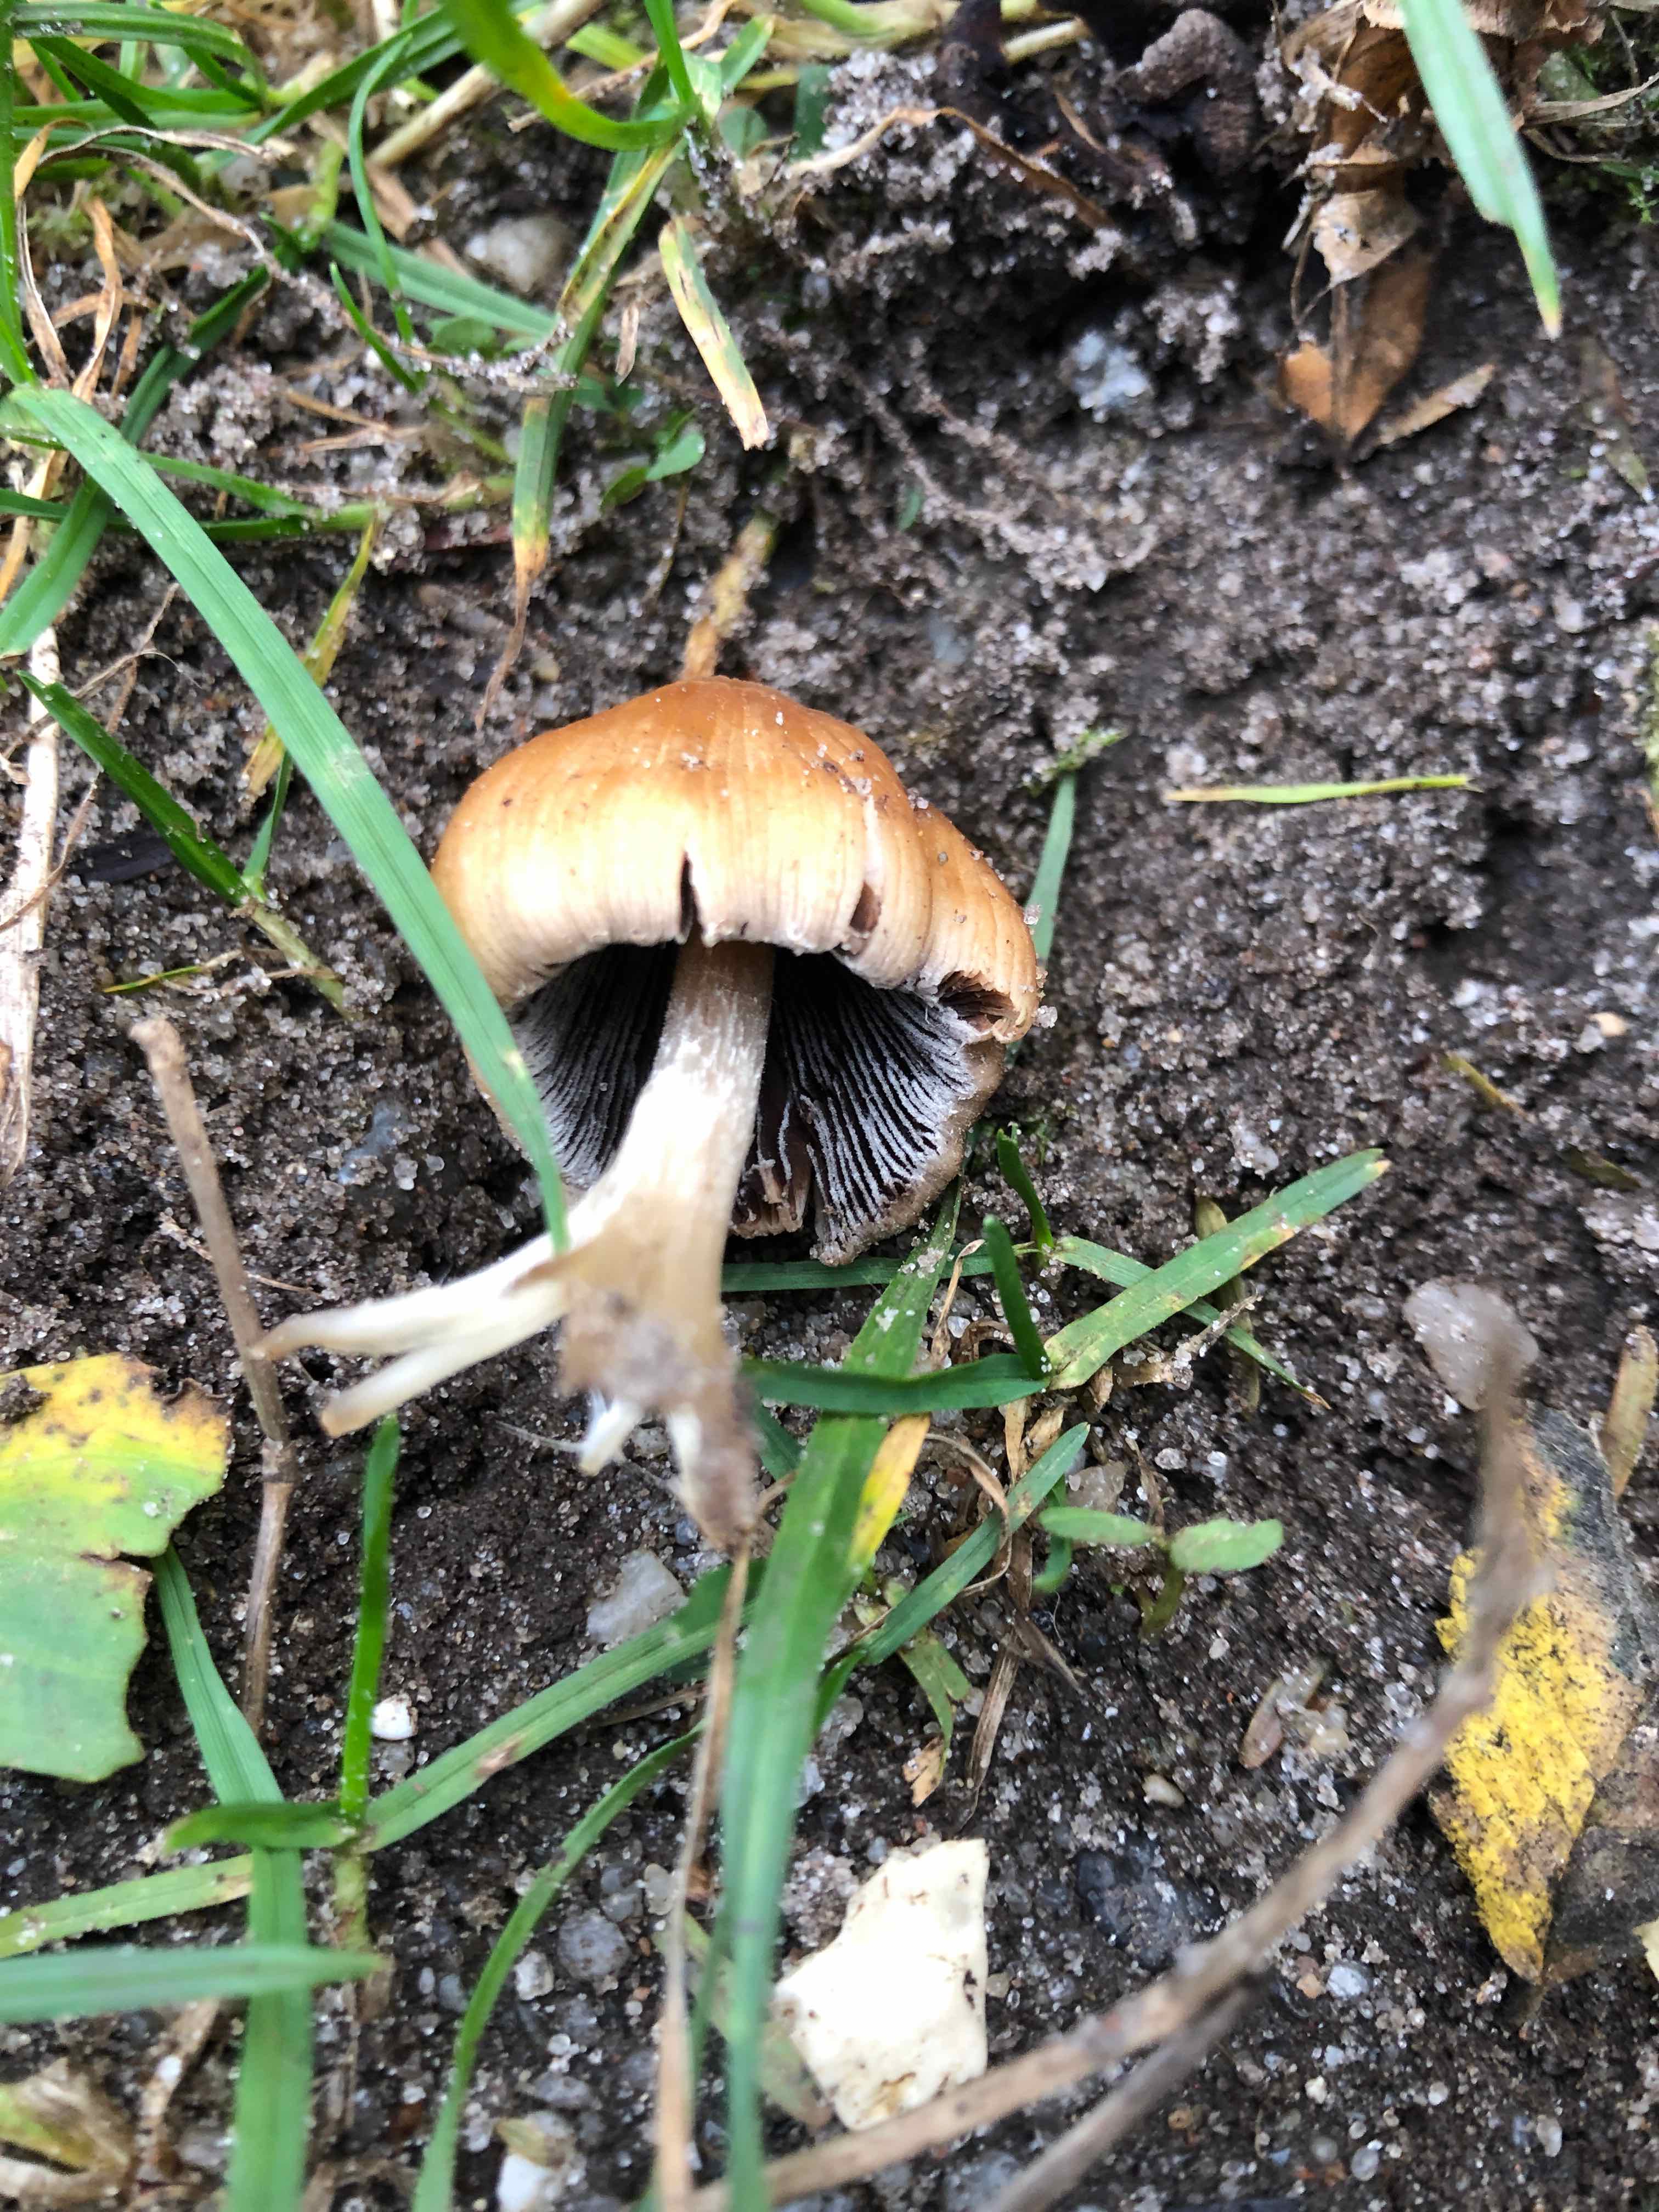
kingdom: Fungi
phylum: Basidiomycota
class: Agaricomycetes
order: Agaricales
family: Psathyrellaceae
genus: Coprinellus
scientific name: Coprinellus
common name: blækhat
